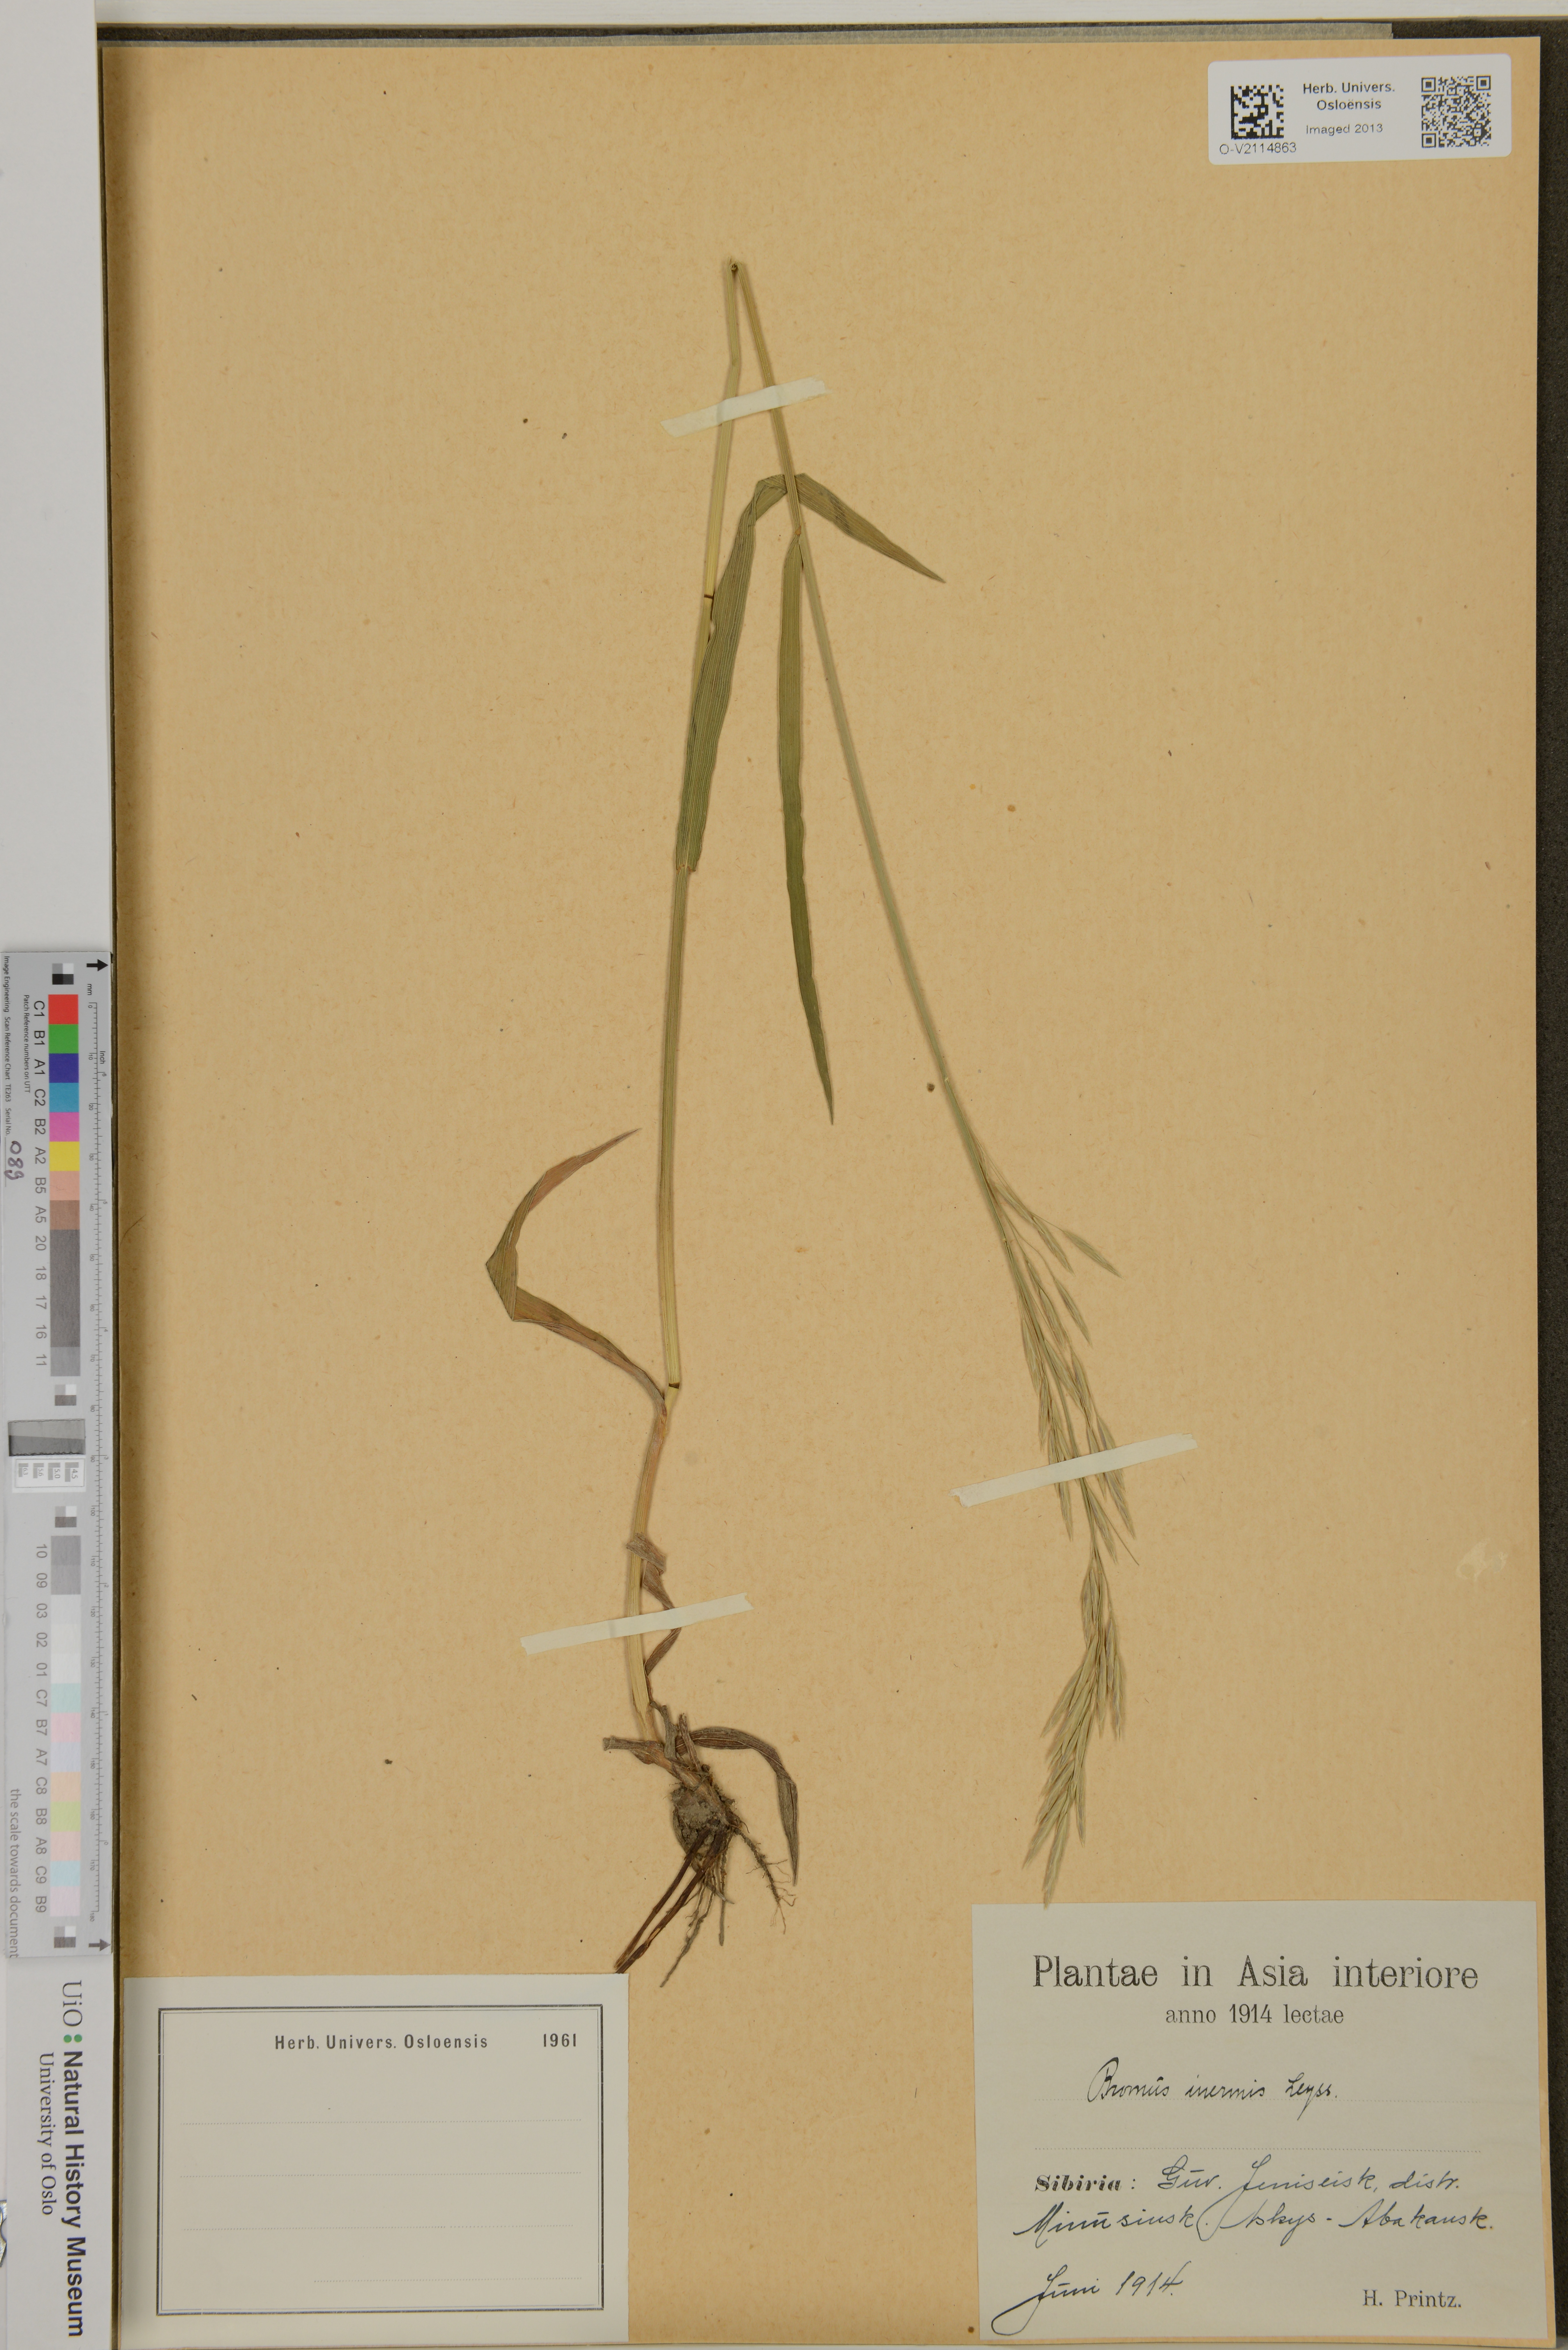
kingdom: Plantae
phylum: Tracheophyta
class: Liliopsida
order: Poales
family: Poaceae
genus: Bromus
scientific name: Bromus inermis
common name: Smooth brome
